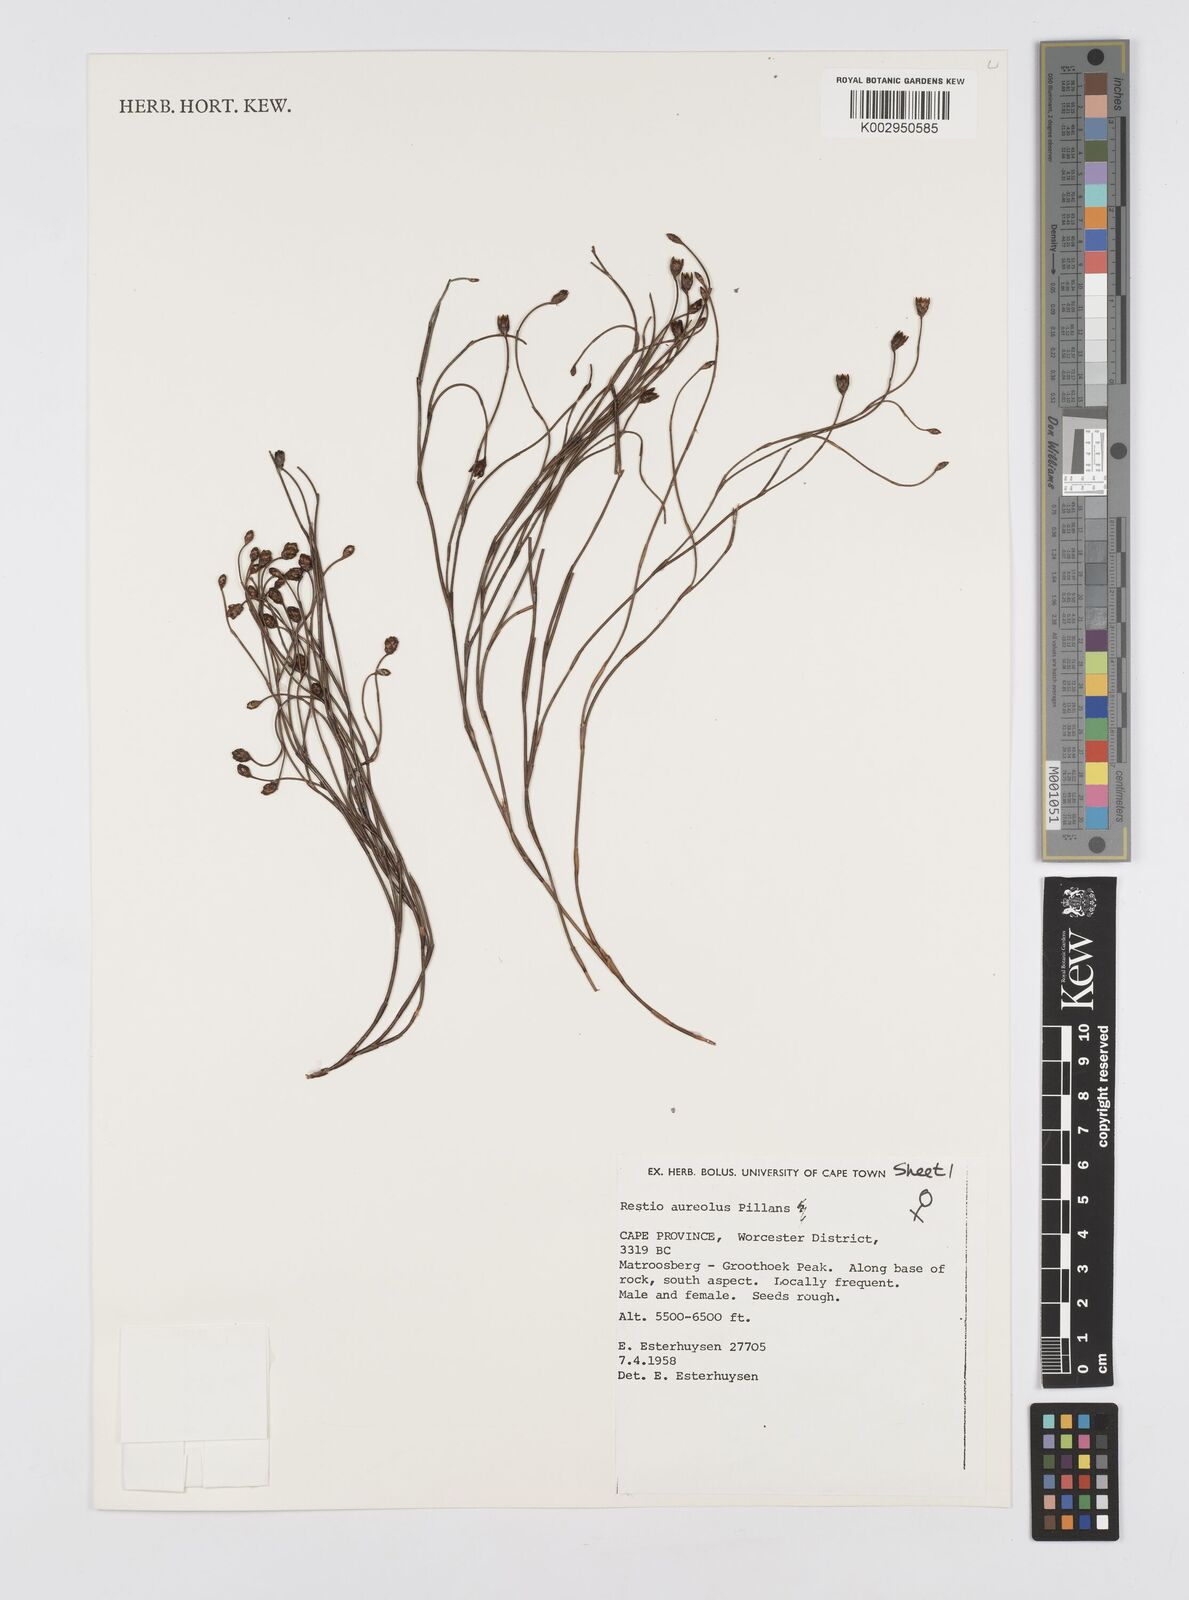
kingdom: Plantae
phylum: Tracheophyta
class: Liliopsida
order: Poales
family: Restionaceae
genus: Restio
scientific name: Restio aureolus
